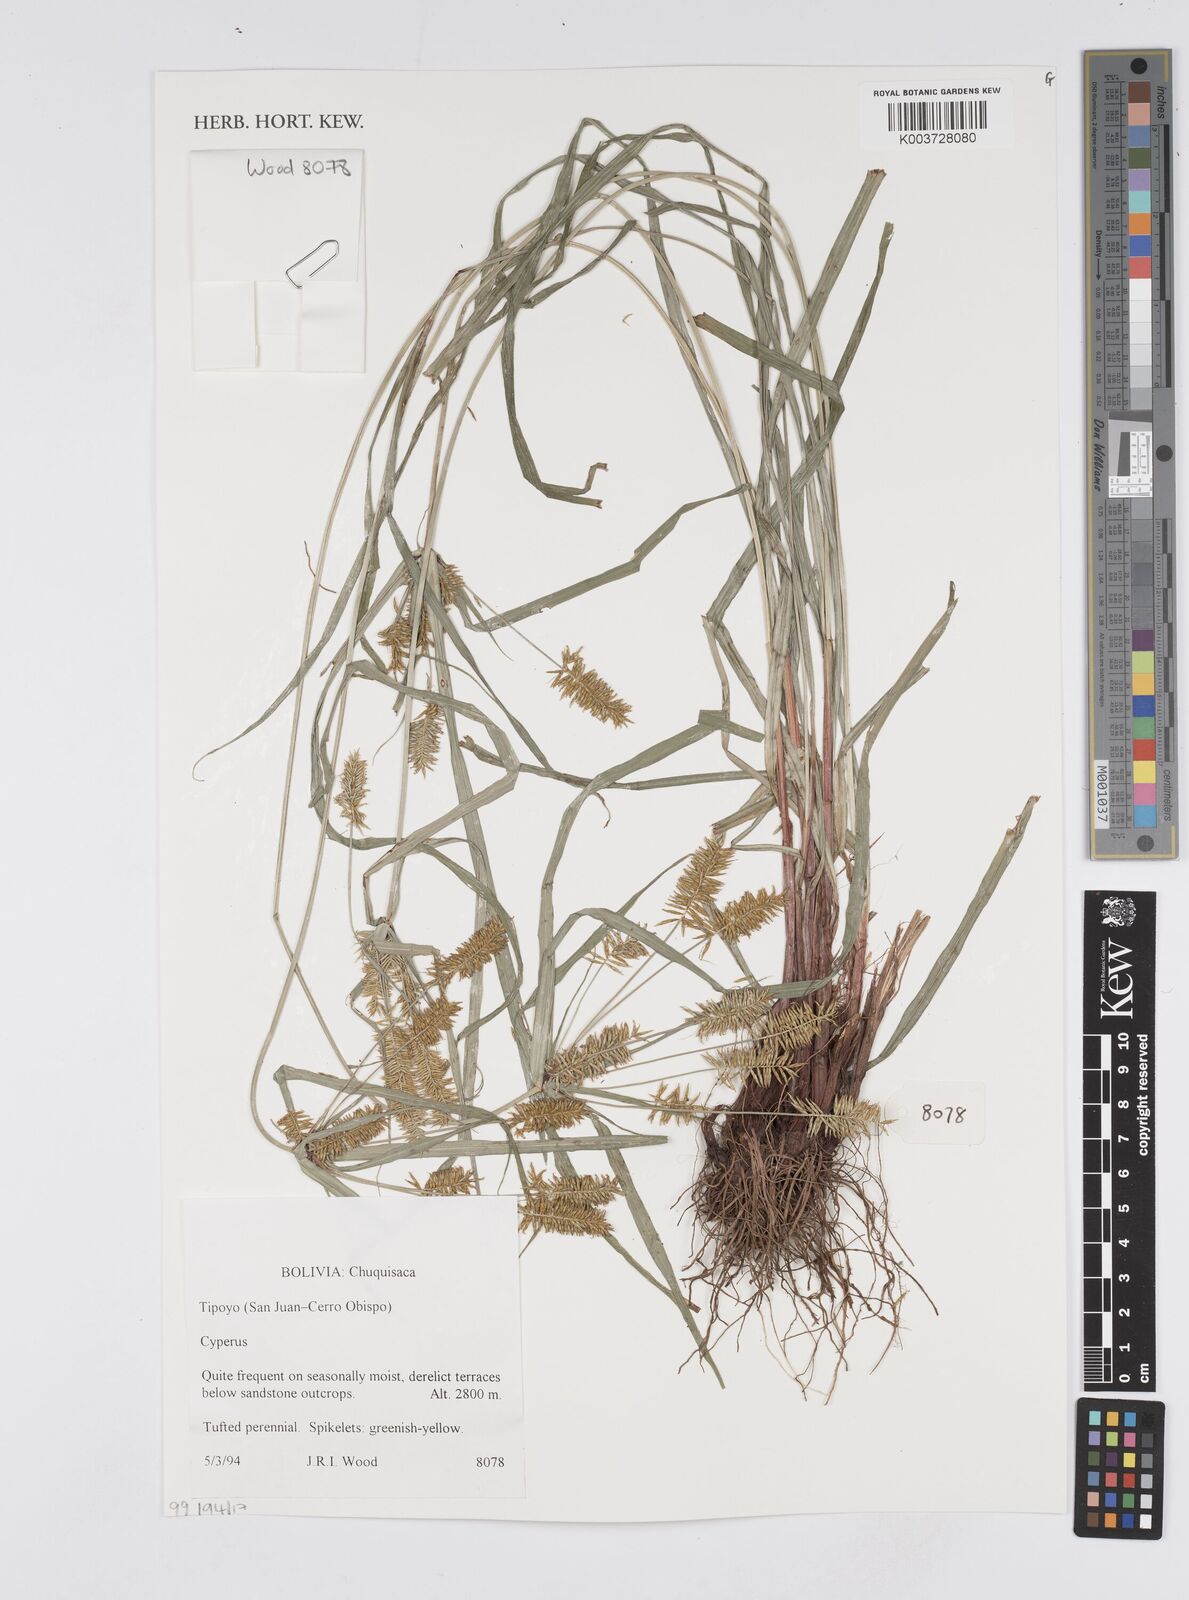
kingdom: Plantae
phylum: Tracheophyta
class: Liliopsida
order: Poales
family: Cyperaceae
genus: Cyperus
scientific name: Cyperus
